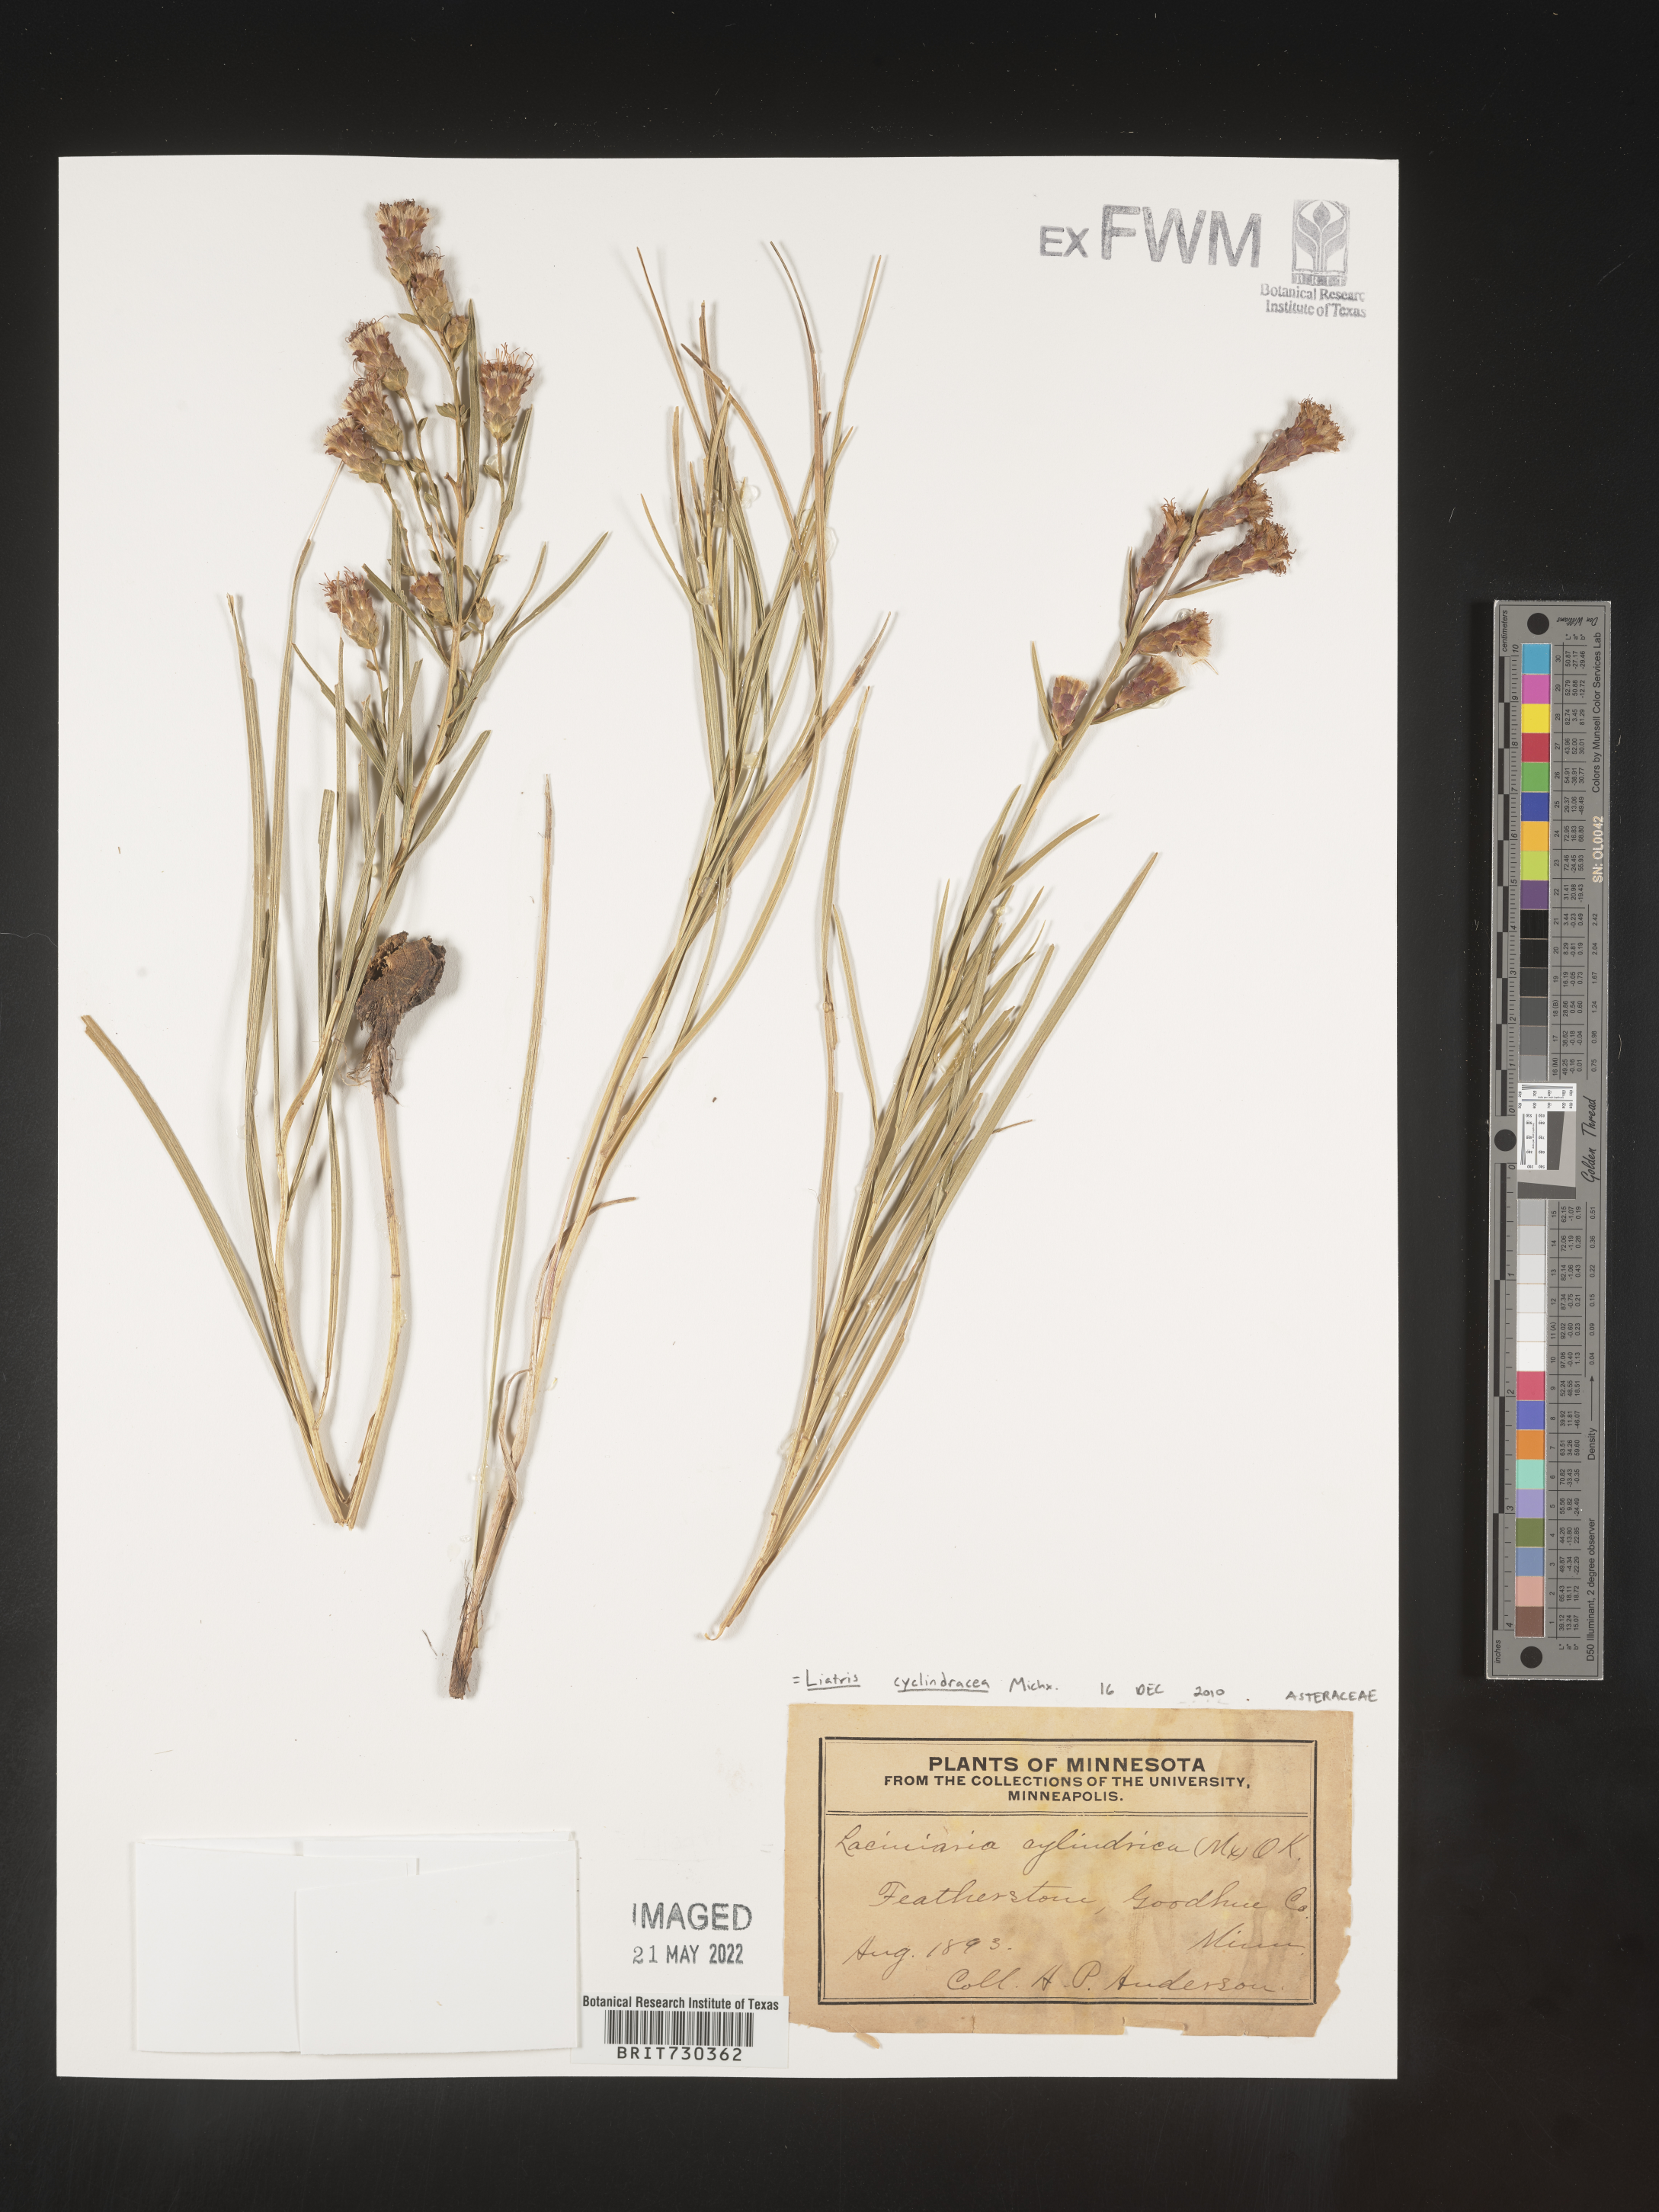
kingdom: Plantae
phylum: Tracheophyta
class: Magnoliopsida
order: Asterales
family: Asteraceae
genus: Liatris
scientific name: Liatris cylindracea
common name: Few-head blazingstar
